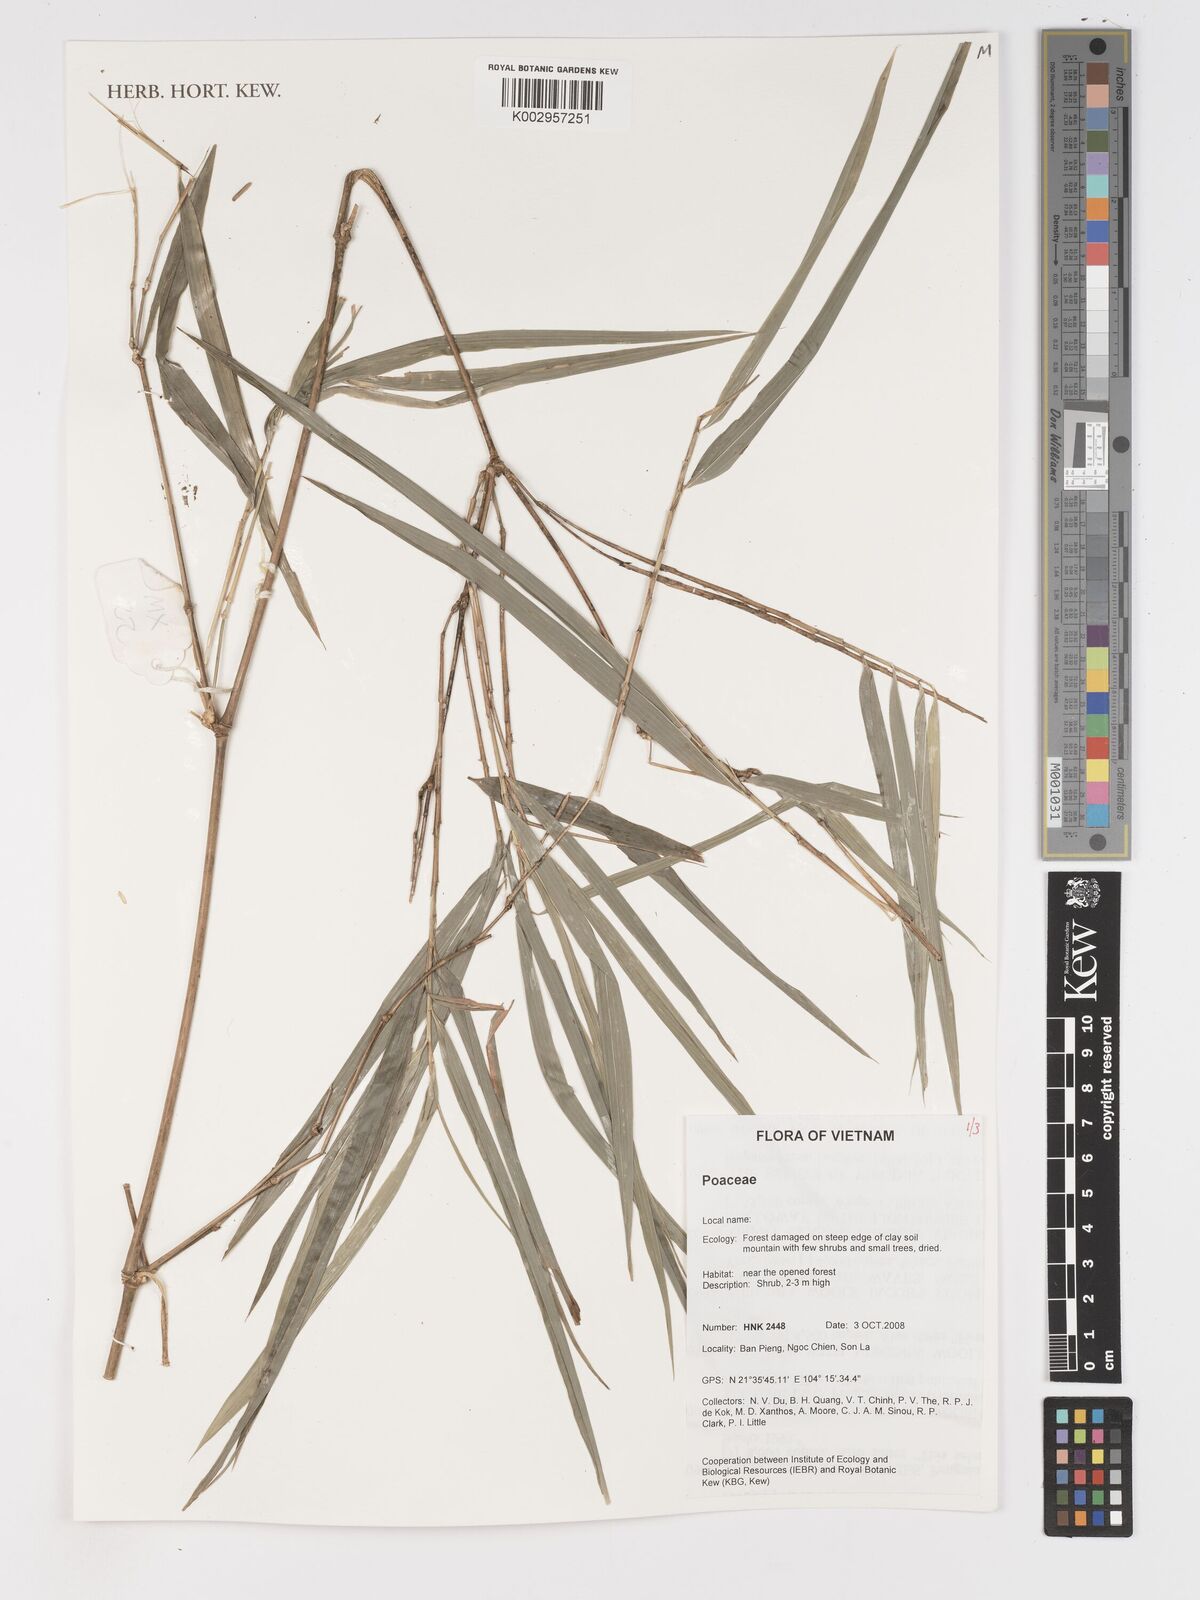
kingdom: Plantae
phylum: Tracheophyta
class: Liliopsida
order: Poales
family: Poaceae
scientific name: Poaceae
